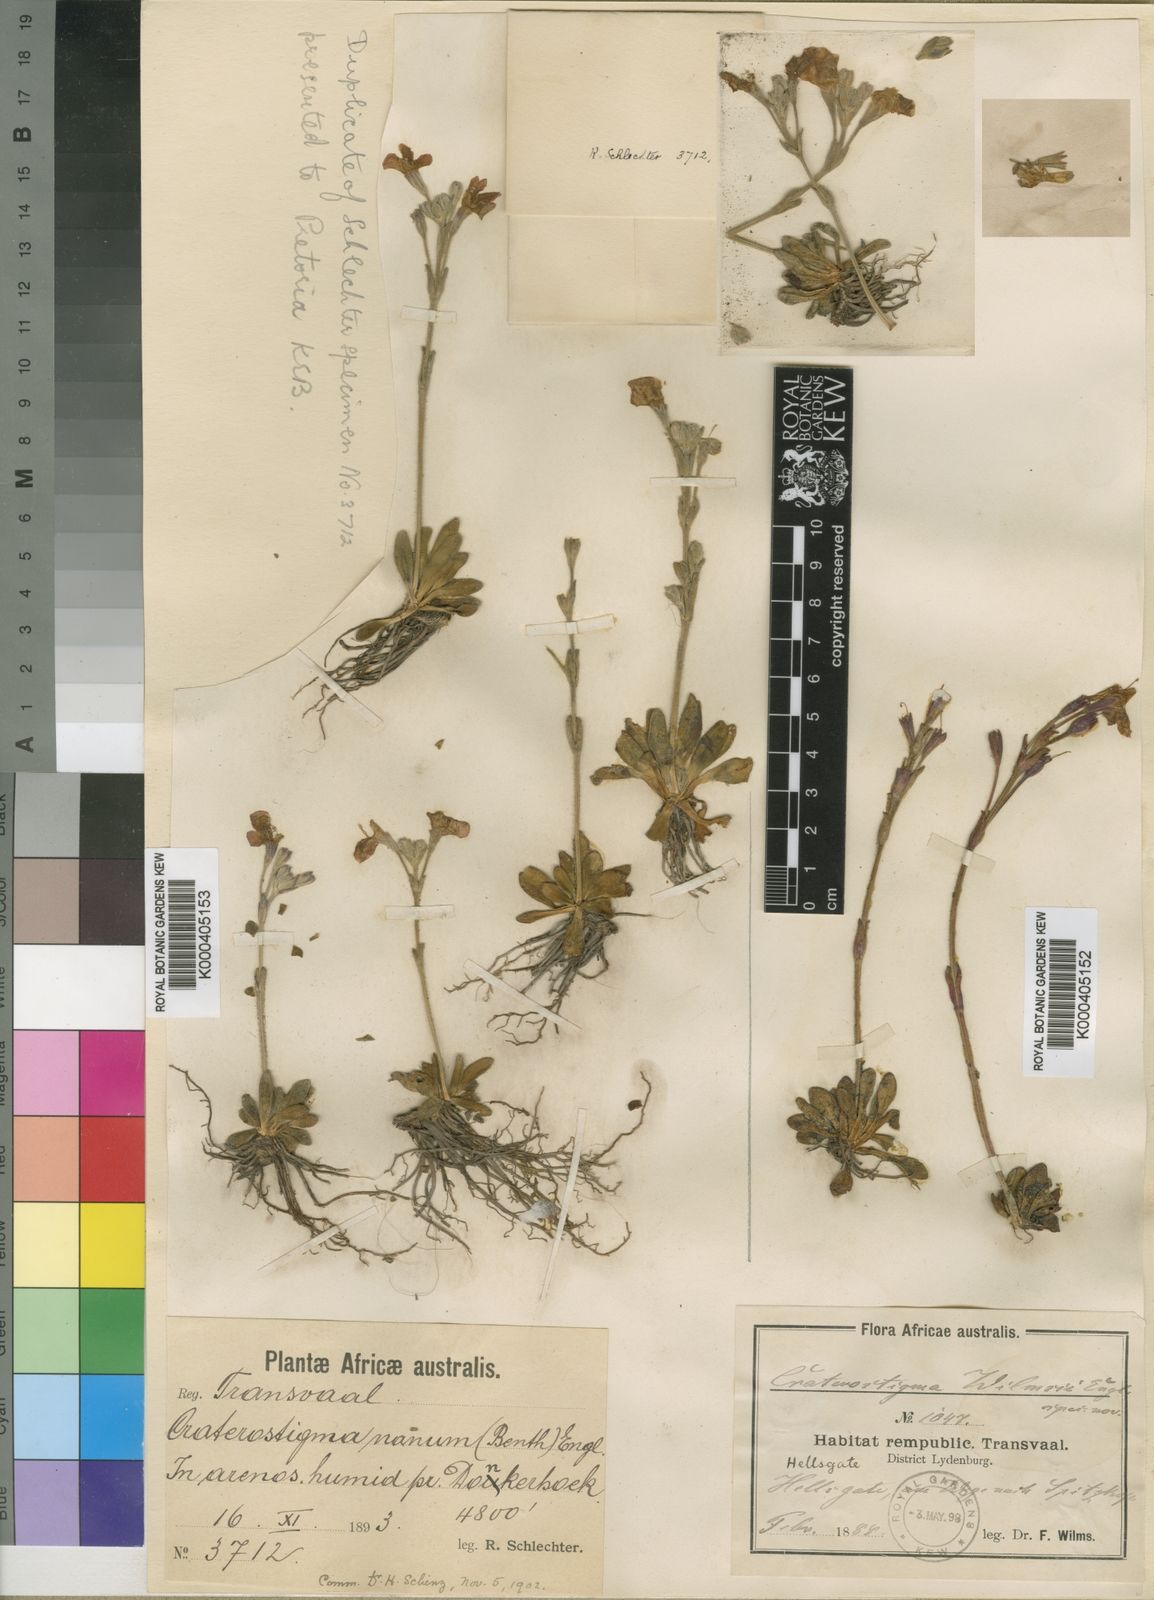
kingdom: Plantae
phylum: Tracheophyta
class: Magnoliopsida
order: Lamiales
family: Linderniaceae
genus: Craterostigma
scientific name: Craterostigma
